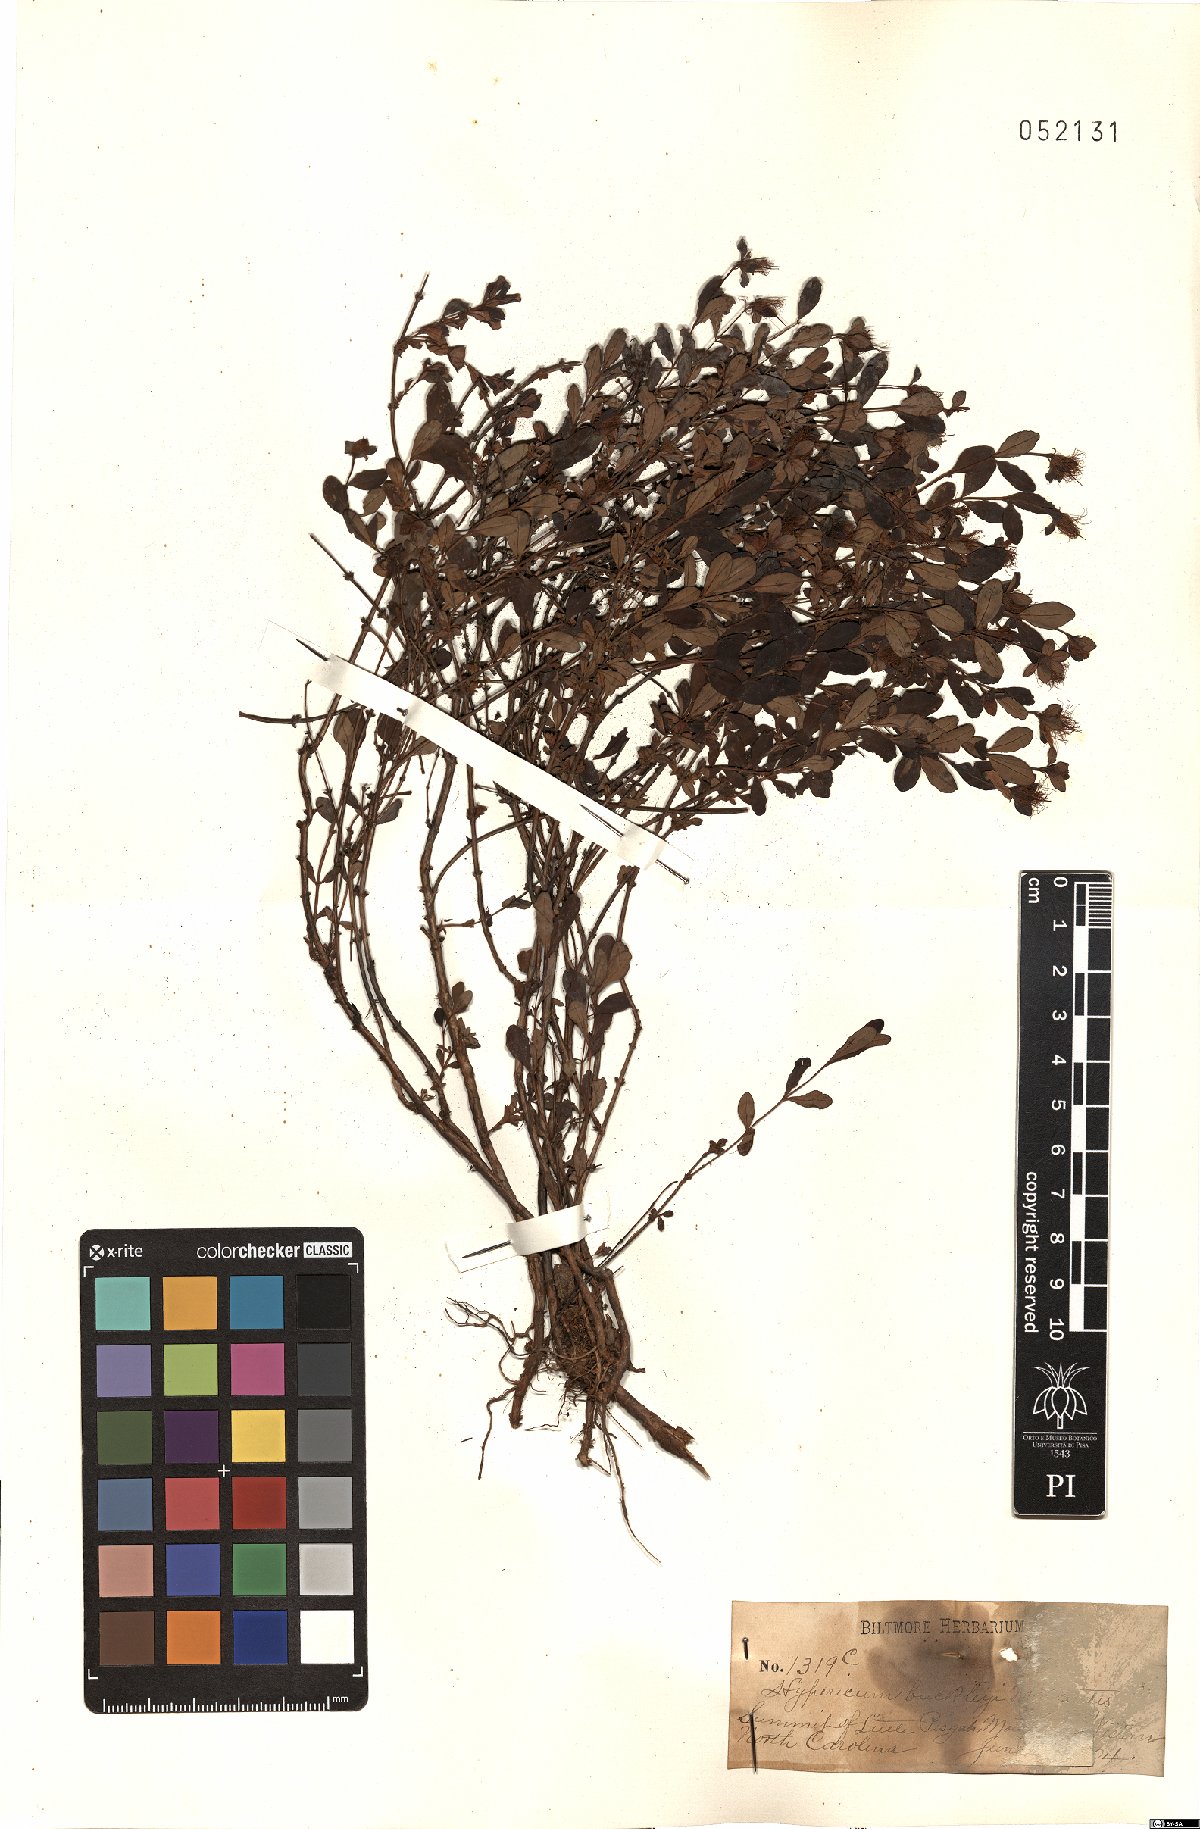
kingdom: Plantae
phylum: Tracheophyta
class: Magnoliopsida
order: Malpighiales
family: Hypericaceae
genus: Hypericum
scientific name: Hypericum buckleyi
